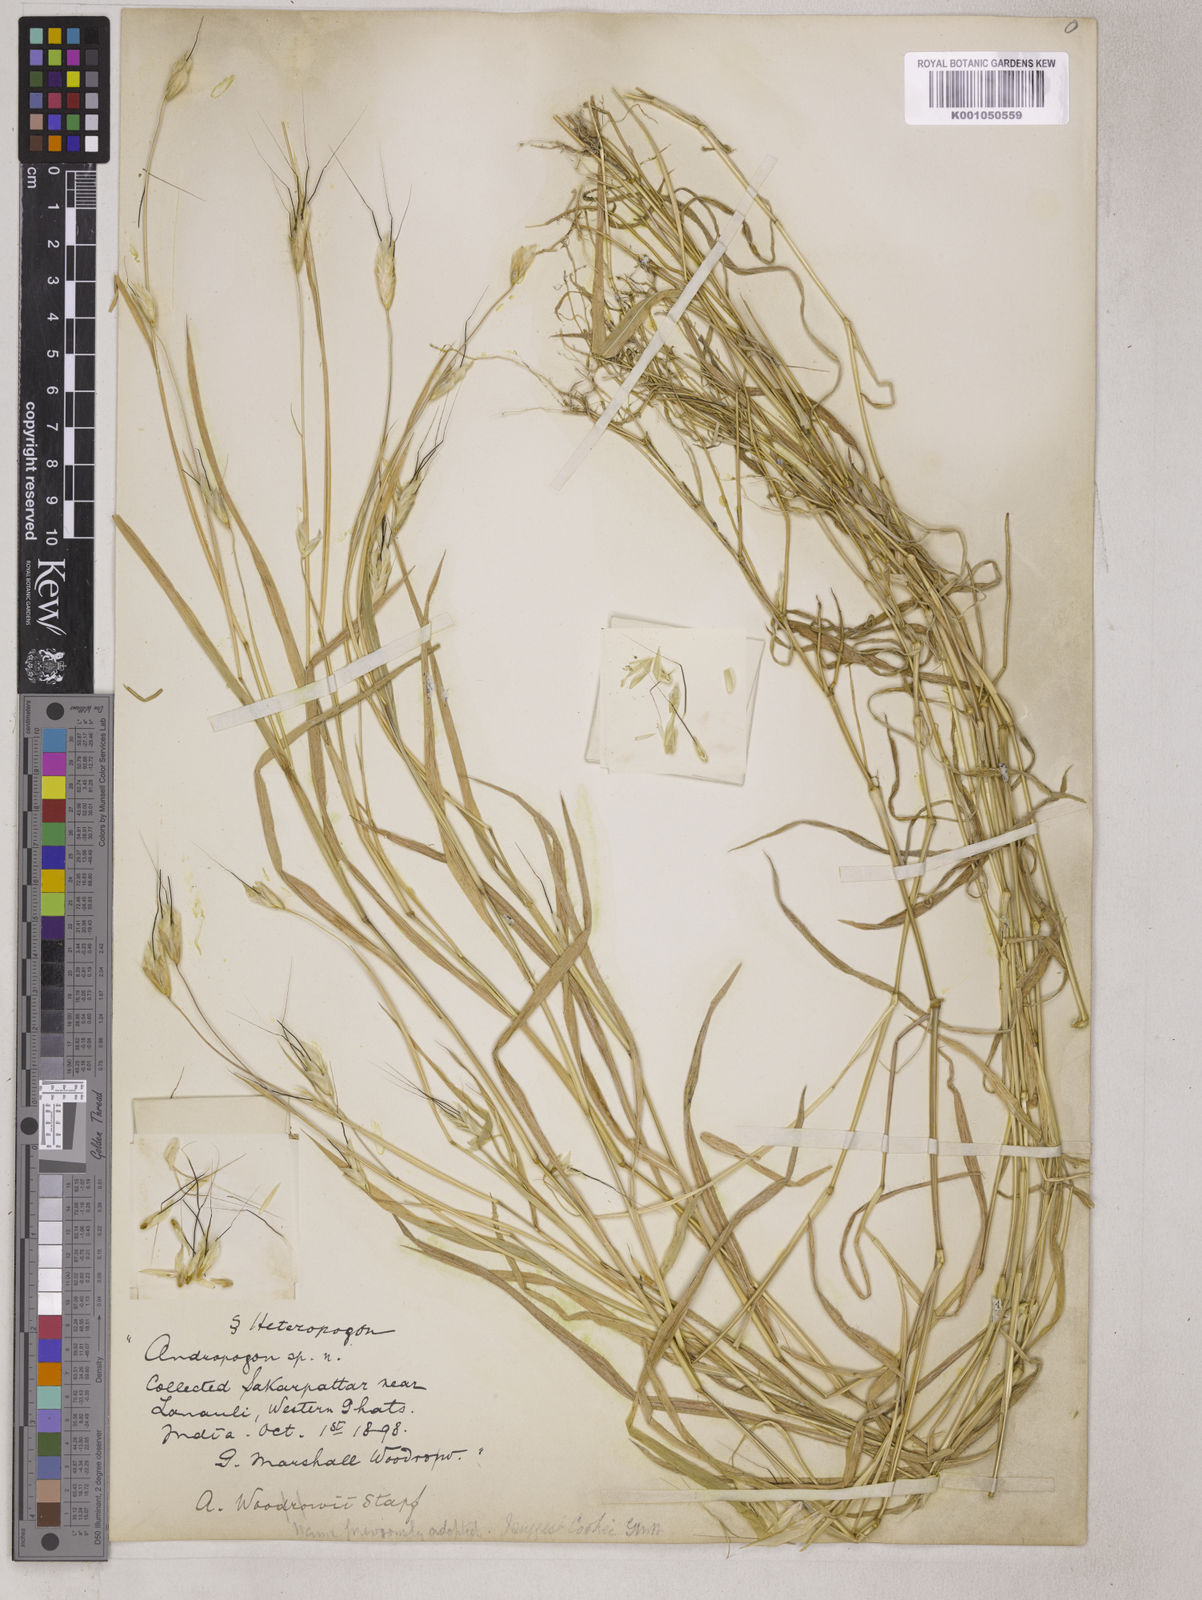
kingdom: Plantae
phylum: Tracheophyta
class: Liliopsida
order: Poales
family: Poaceae
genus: Pseudodichanthium
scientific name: Pseudodichanthium serrafalcoides
